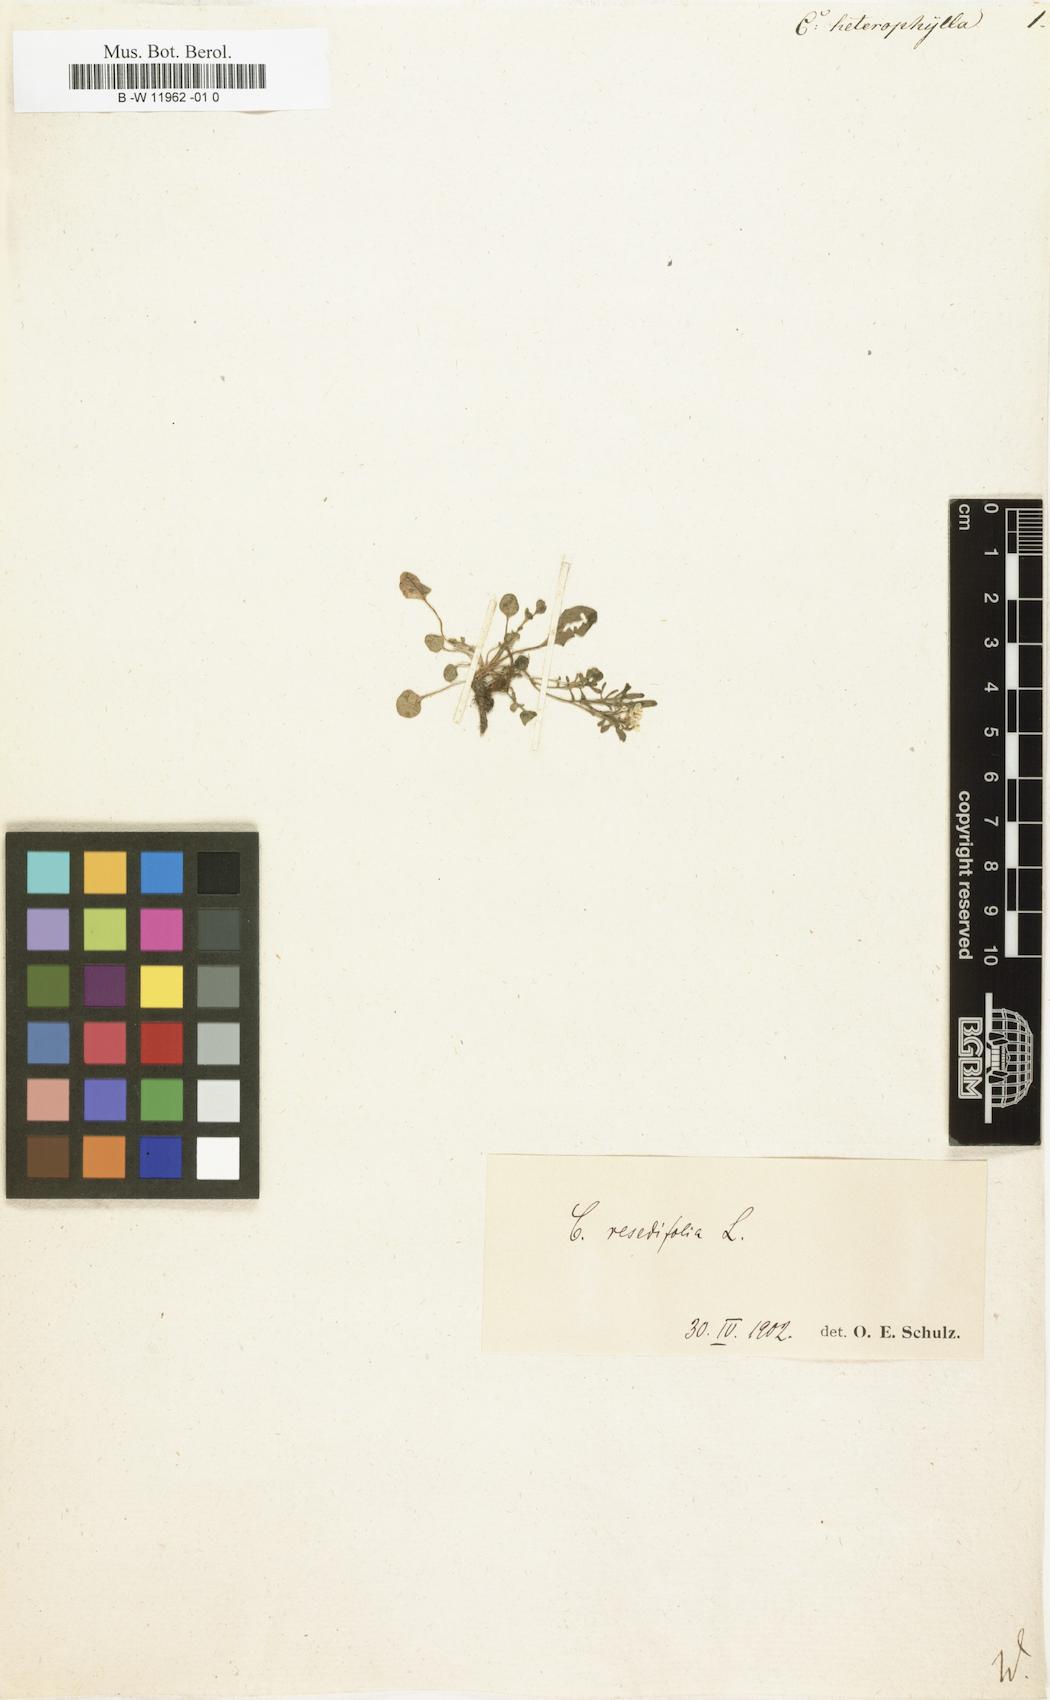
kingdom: Plantae
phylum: Tracheophyta
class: Magnoliopsida
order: Brassicales
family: Brassicaceae
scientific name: Brassicaceae
